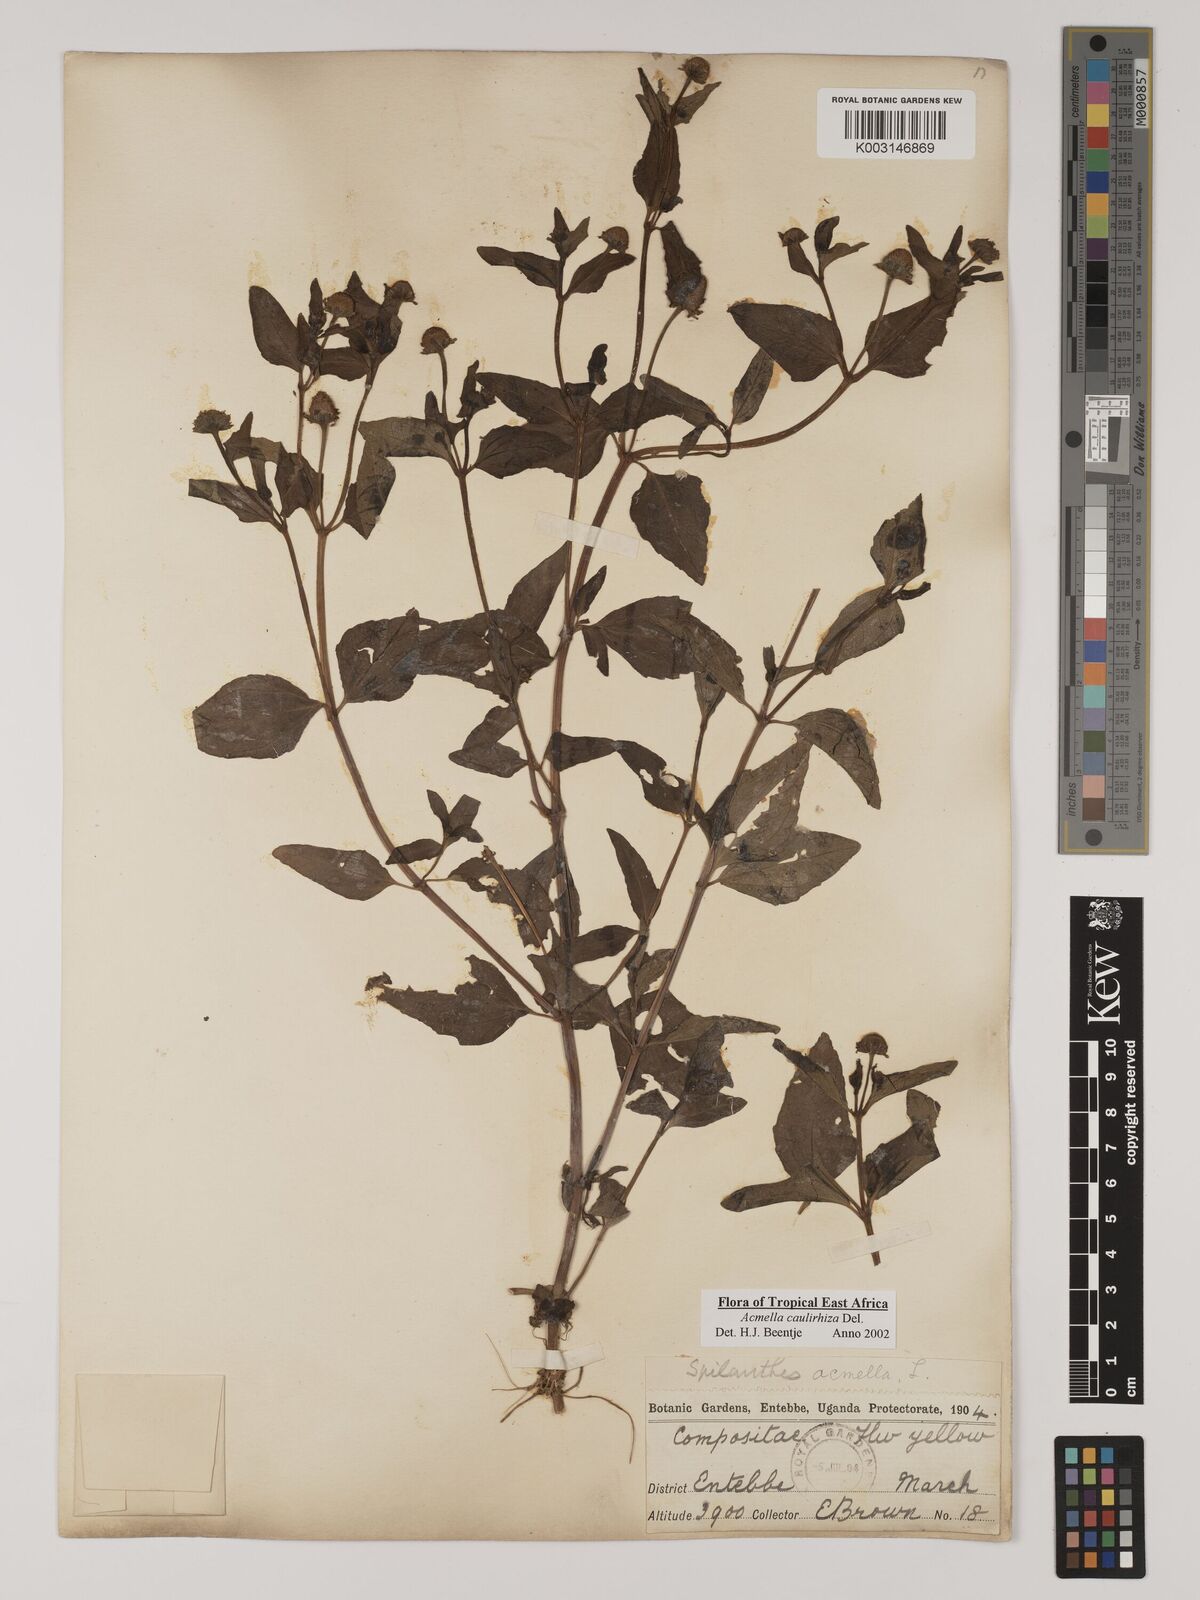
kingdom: Plantae
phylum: Tracheophyta
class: Magnoliopsida
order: Asterales
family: Asteraceae
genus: Acmella
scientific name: Acmella caulirhiza
